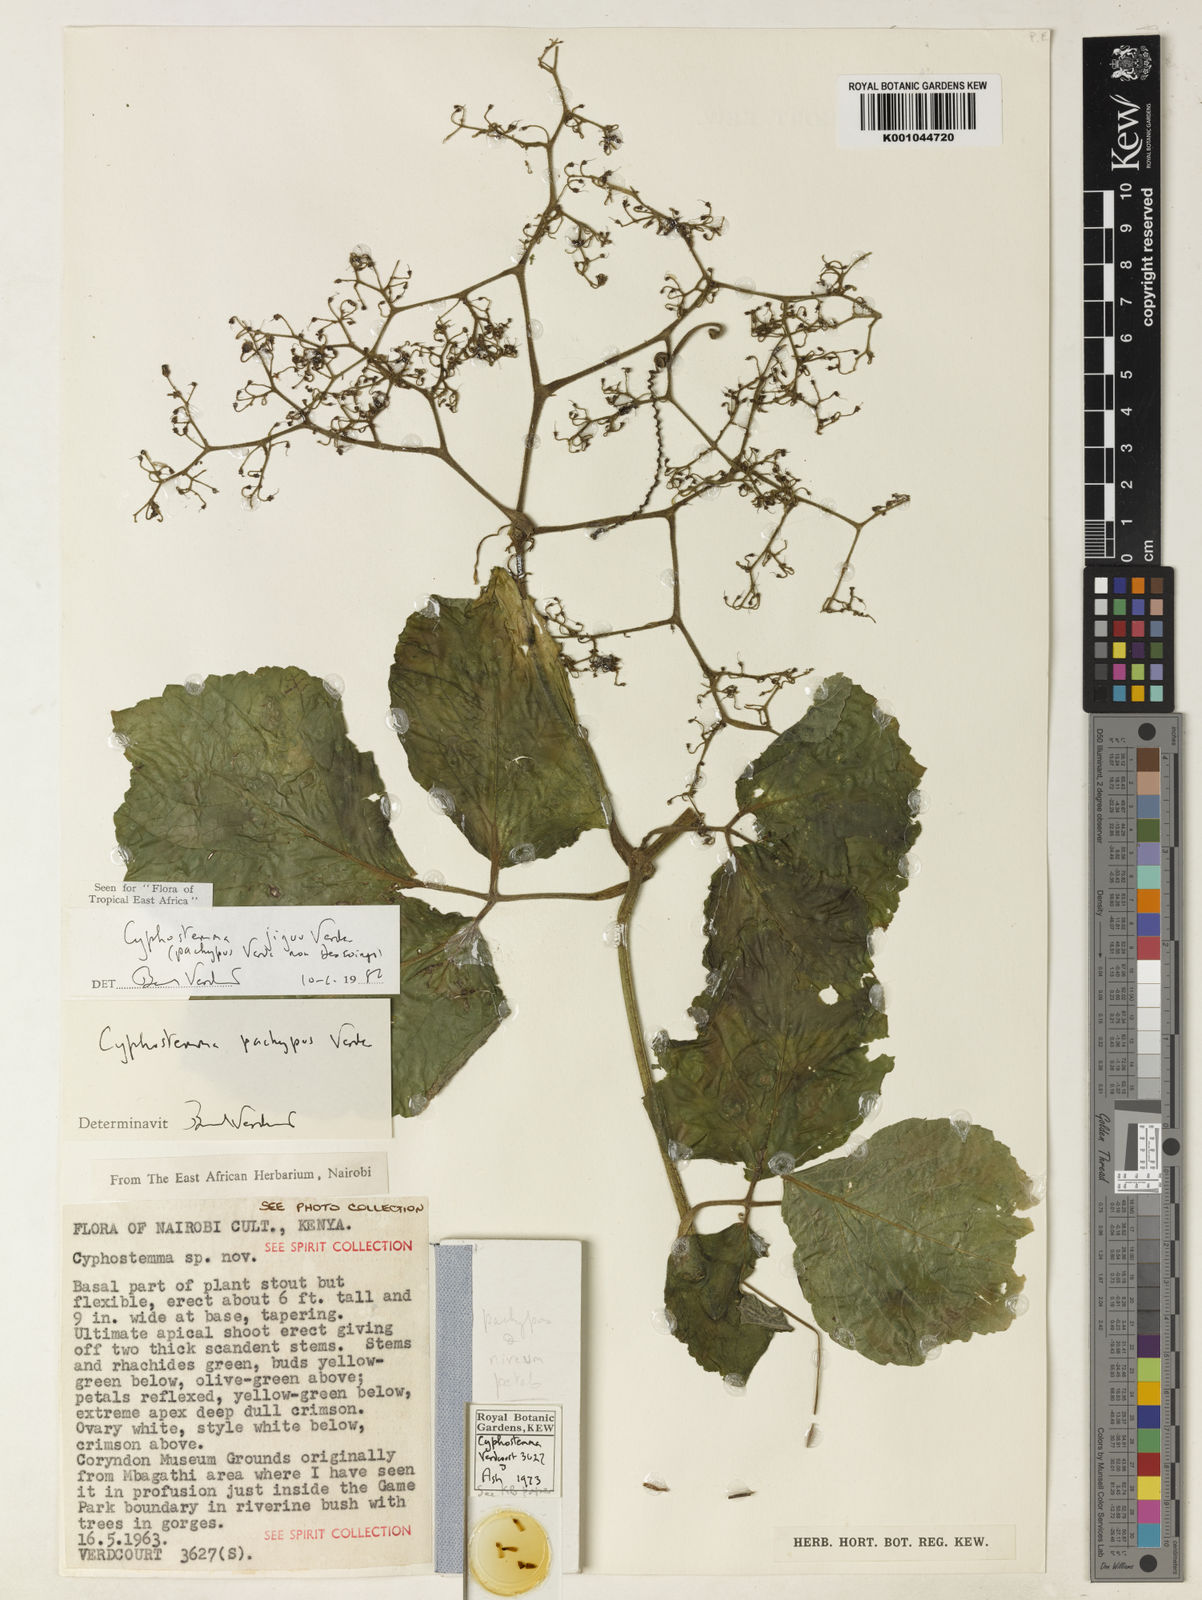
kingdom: Plantae
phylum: Tracheophyta
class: Magnoliopsida
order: Vitales
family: Vitaceae
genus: Cyphostemma
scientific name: Cyphostemma jiguu
